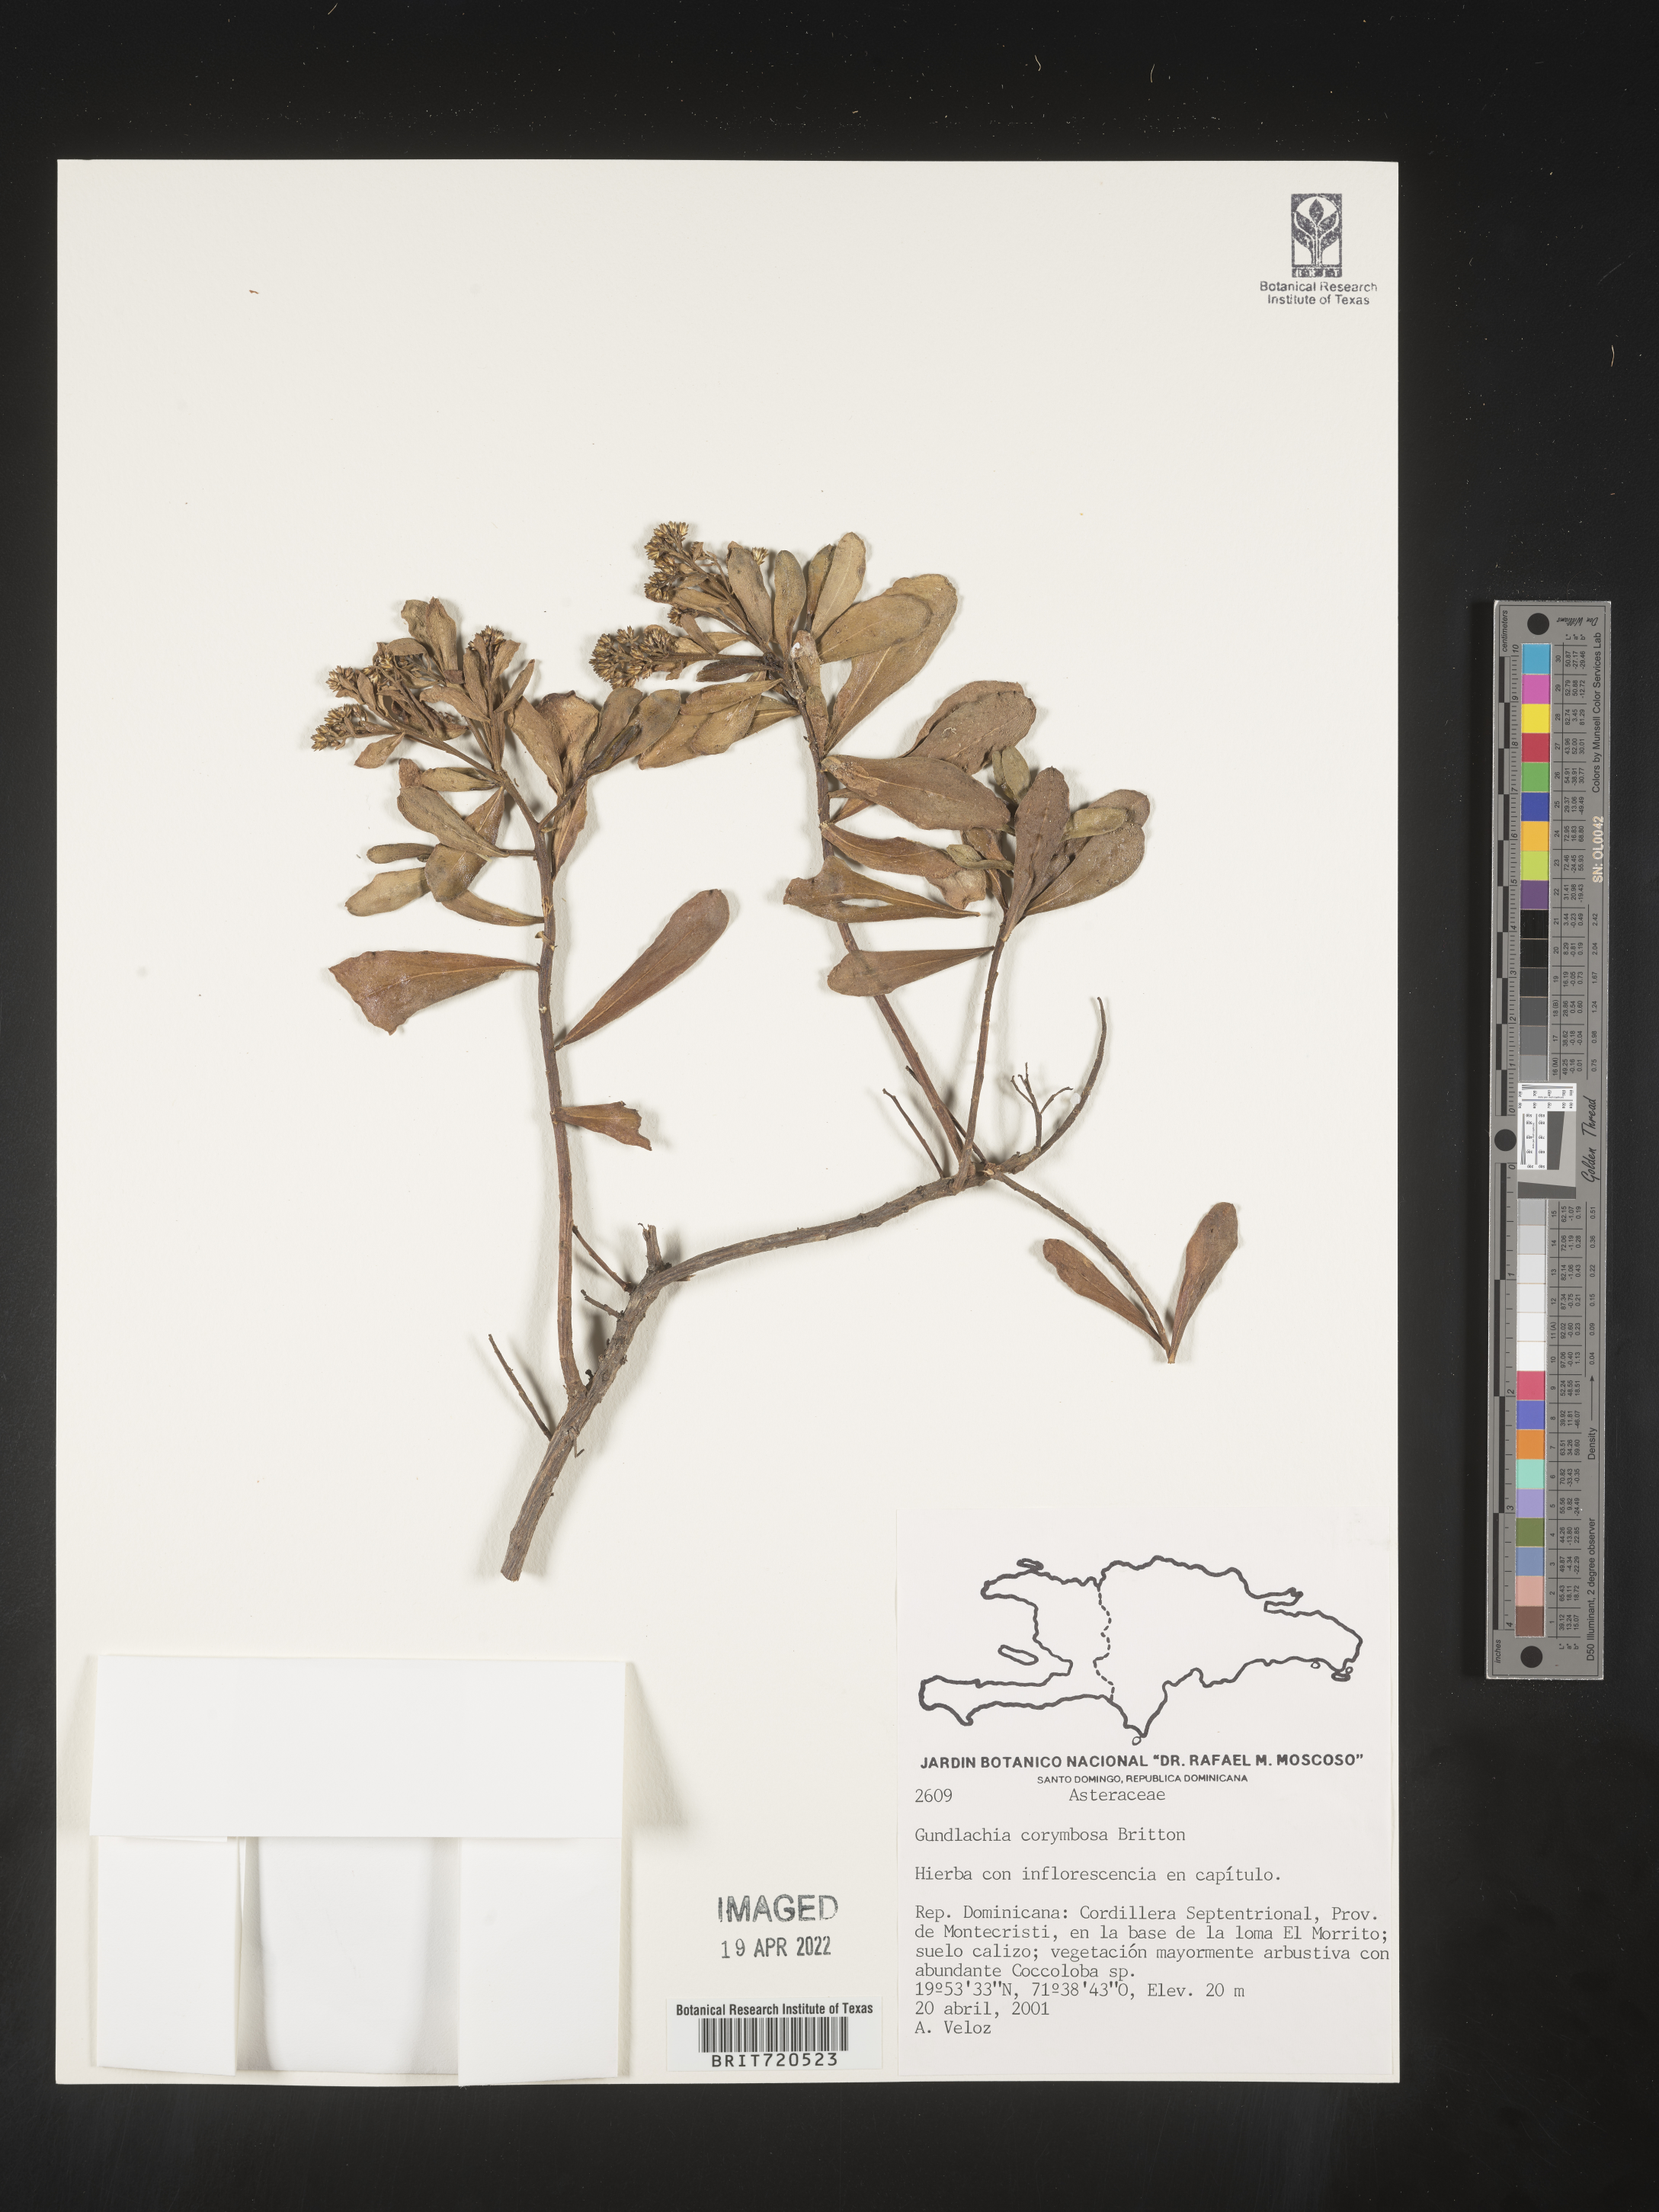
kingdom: Plantae
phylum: Tracheophyta
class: Magnoliopsida
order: Asterales
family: Asteraceae
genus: Gundlachia
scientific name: Gundlachia
